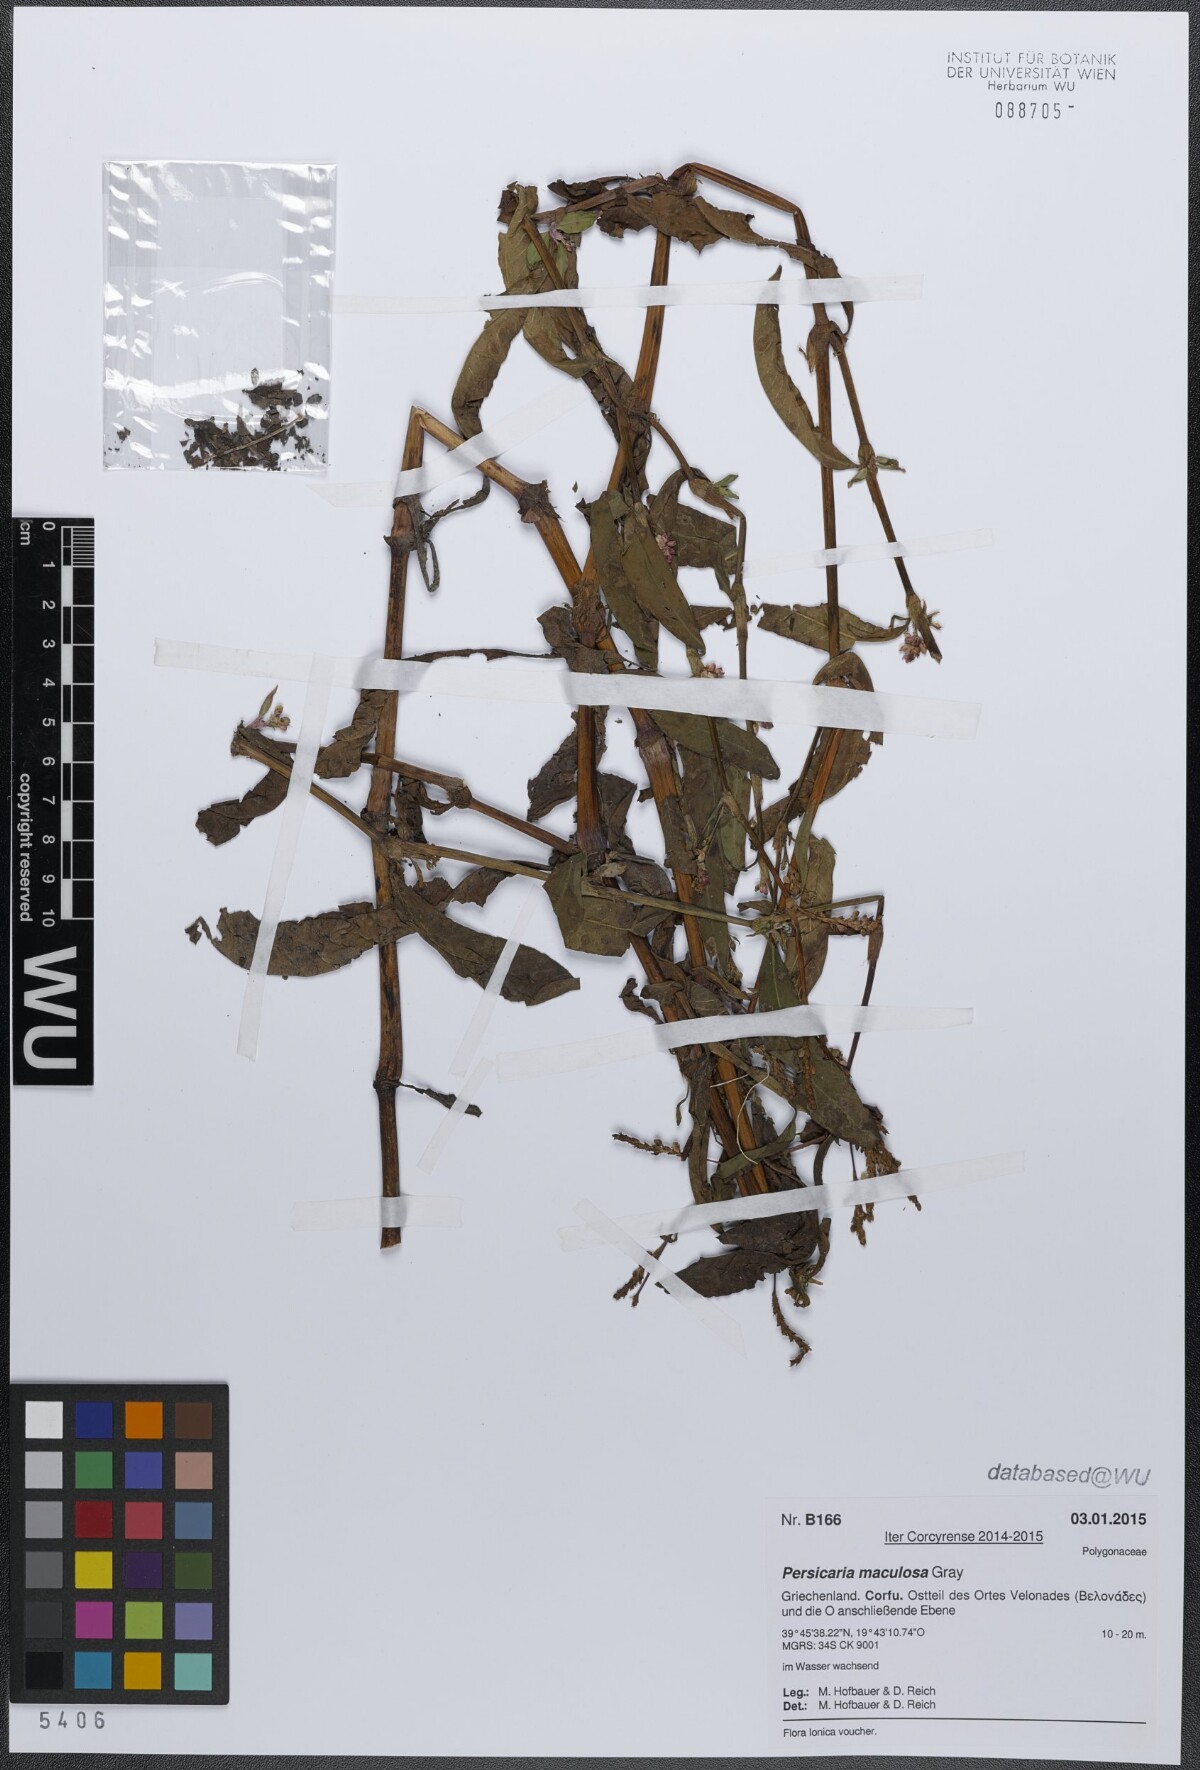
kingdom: Plantae
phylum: Tracheophyta
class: Magnoliopsida
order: Caryophyllales
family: Polygonaceae
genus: Persicaria
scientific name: Persicaria maculosa
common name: Redshank
